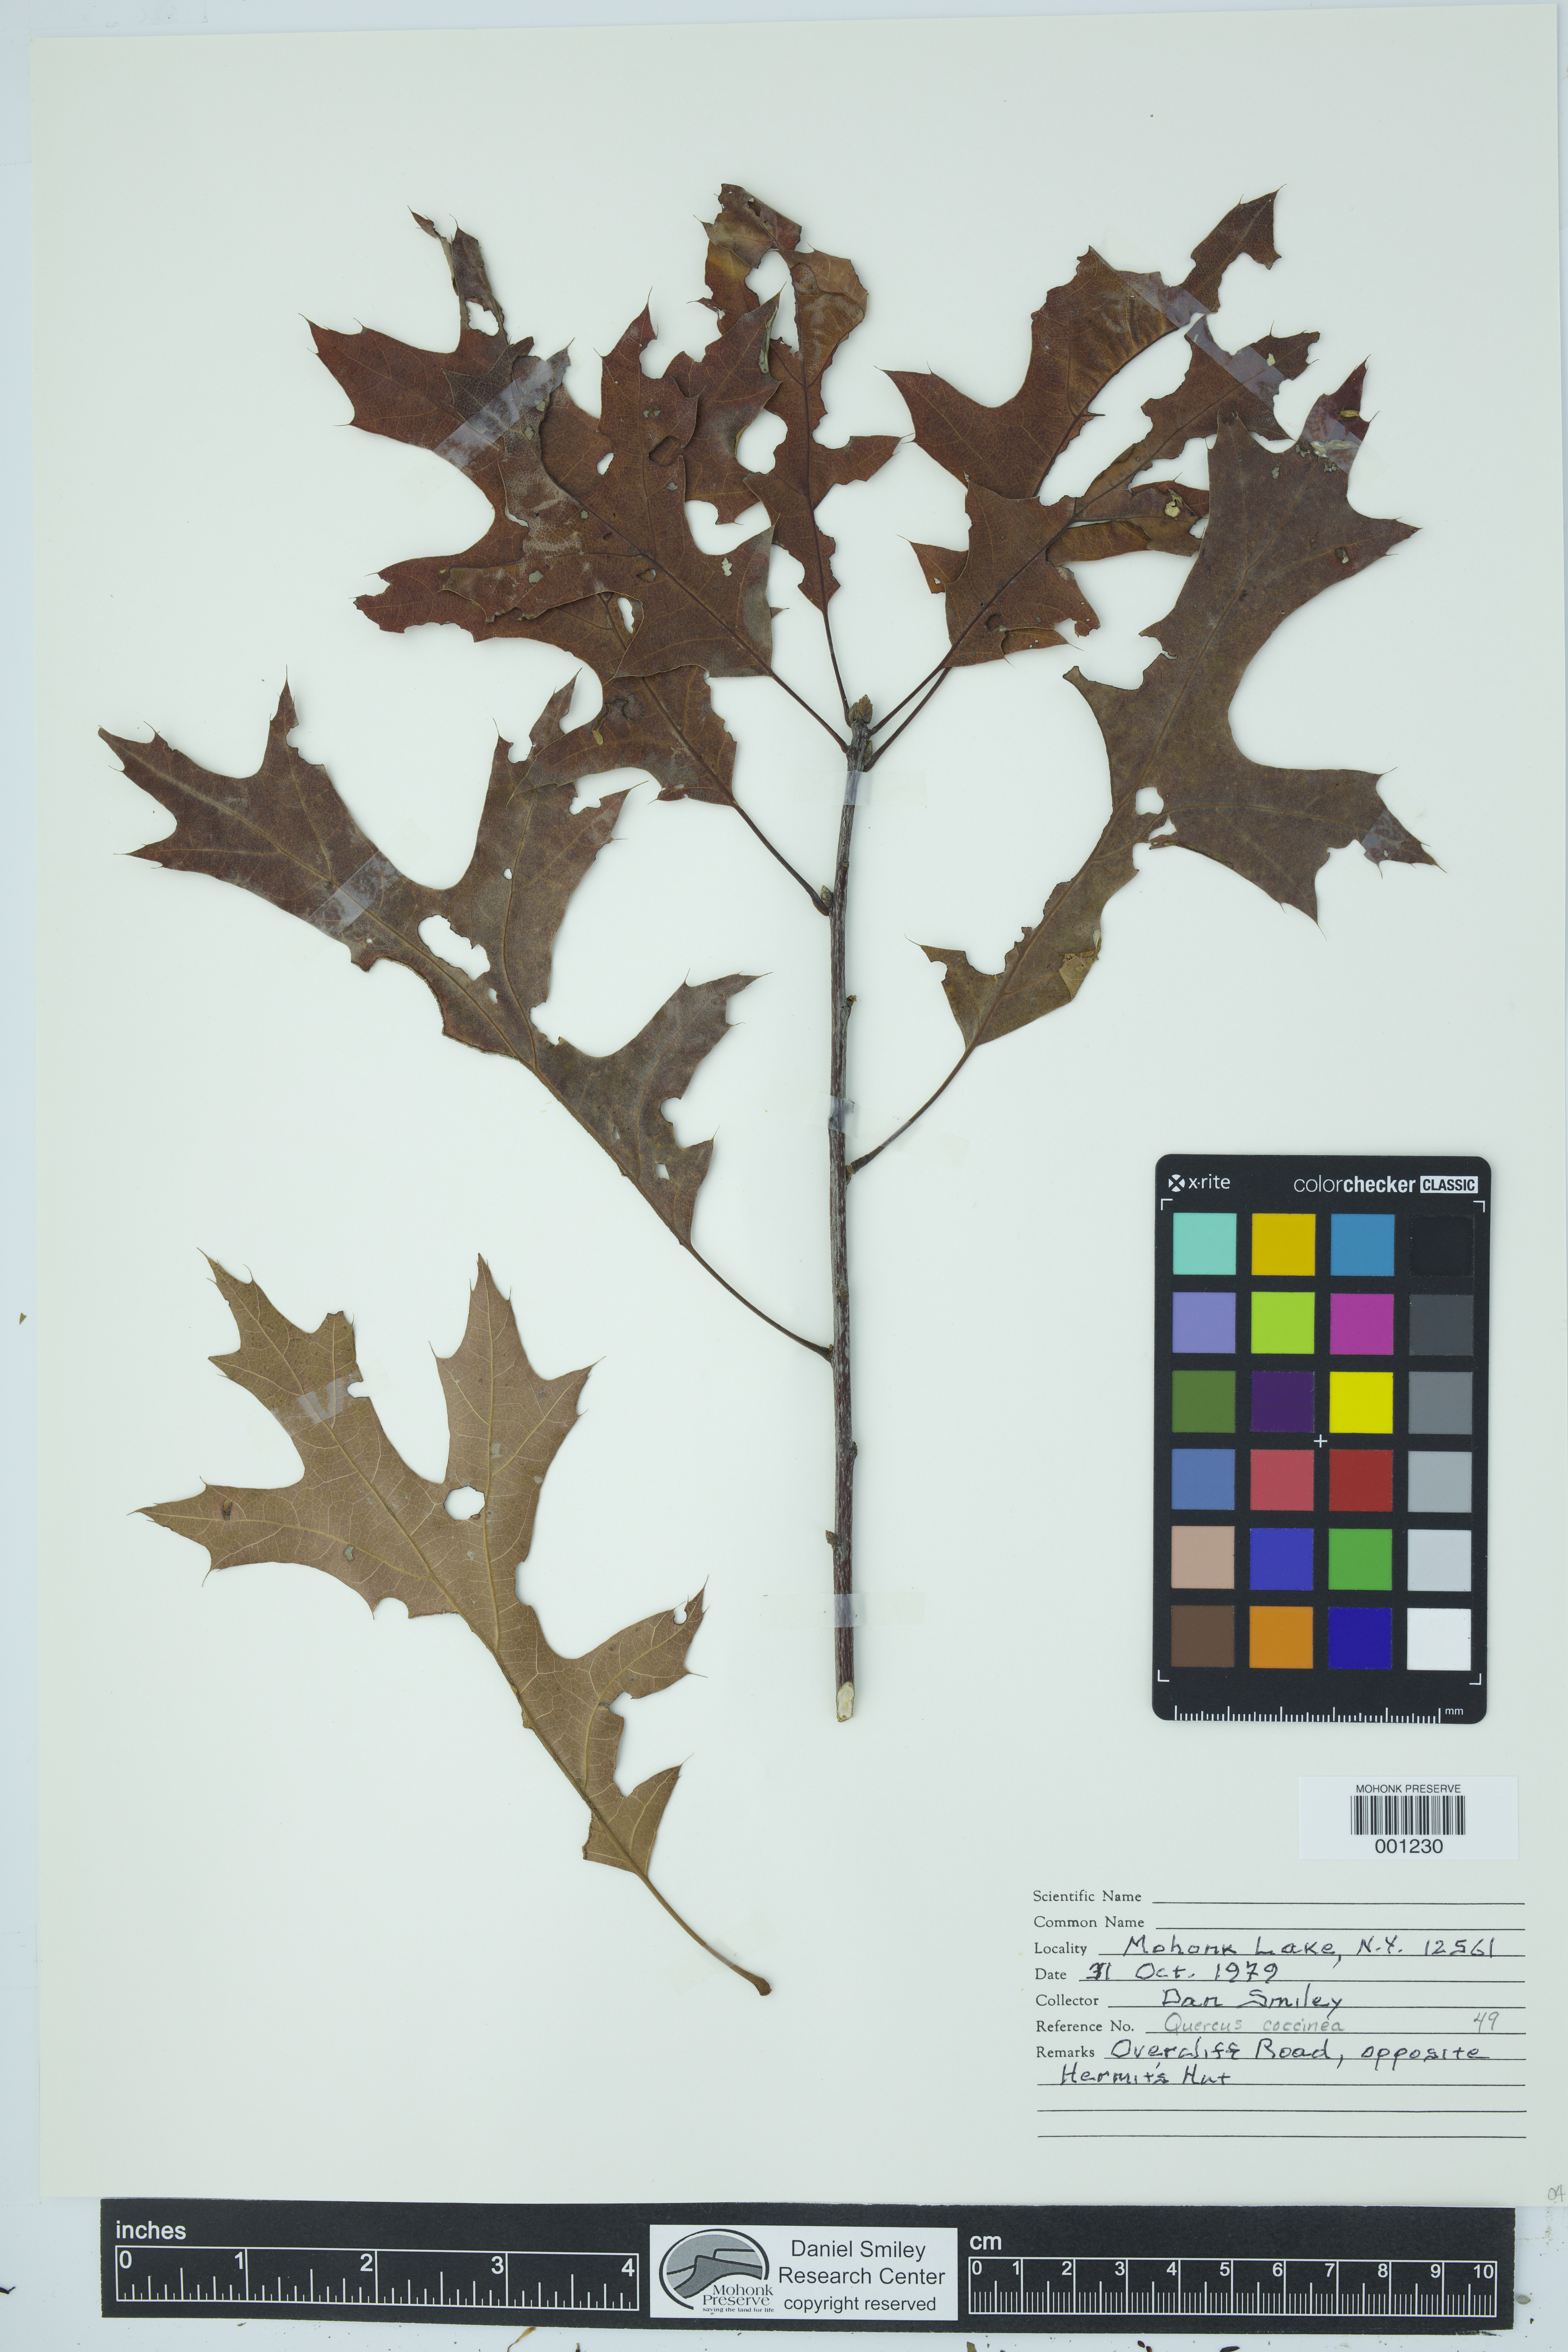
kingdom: Plantae
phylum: Tracheophyta
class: Magnoliopsida
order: Fagales
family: Fagaceae
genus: Quercus
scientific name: Quercus coccinea
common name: Scarlet oak
